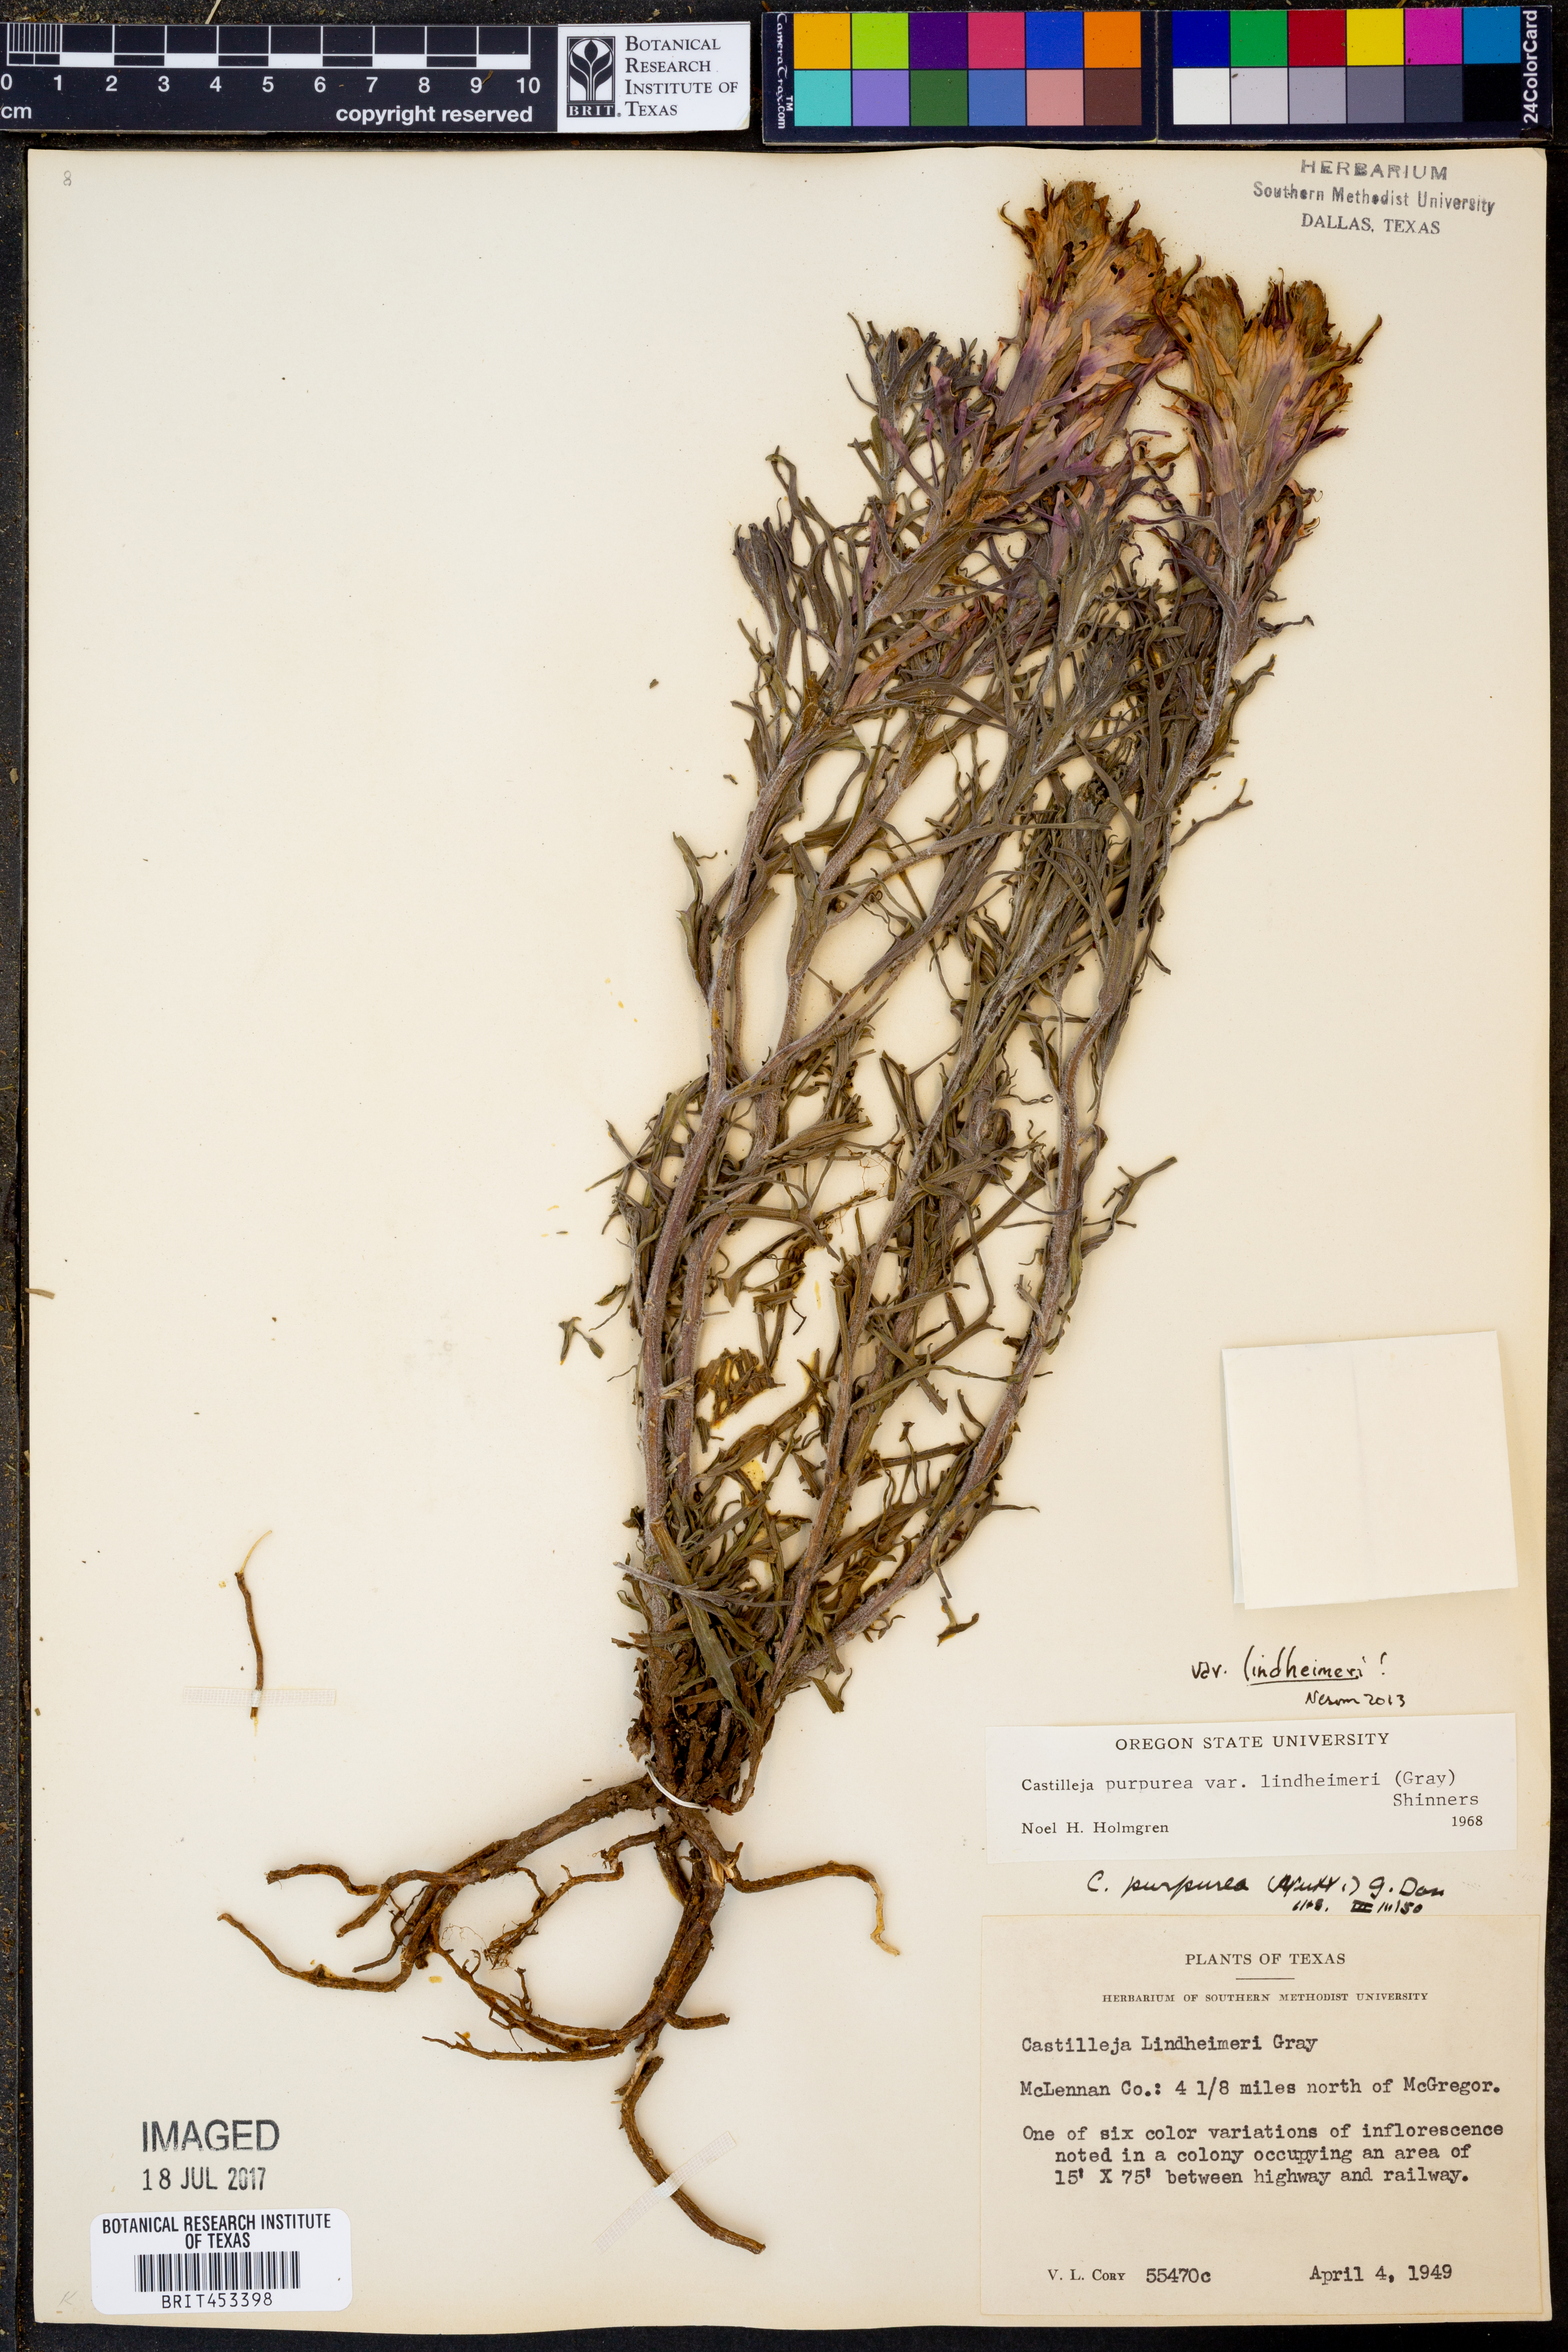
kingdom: Plantae
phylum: Tracheophyta
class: Magnoliopsida
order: Lamiales
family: Orobanchaceae
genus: Castilleja
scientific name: Castilleja lindheimeri
